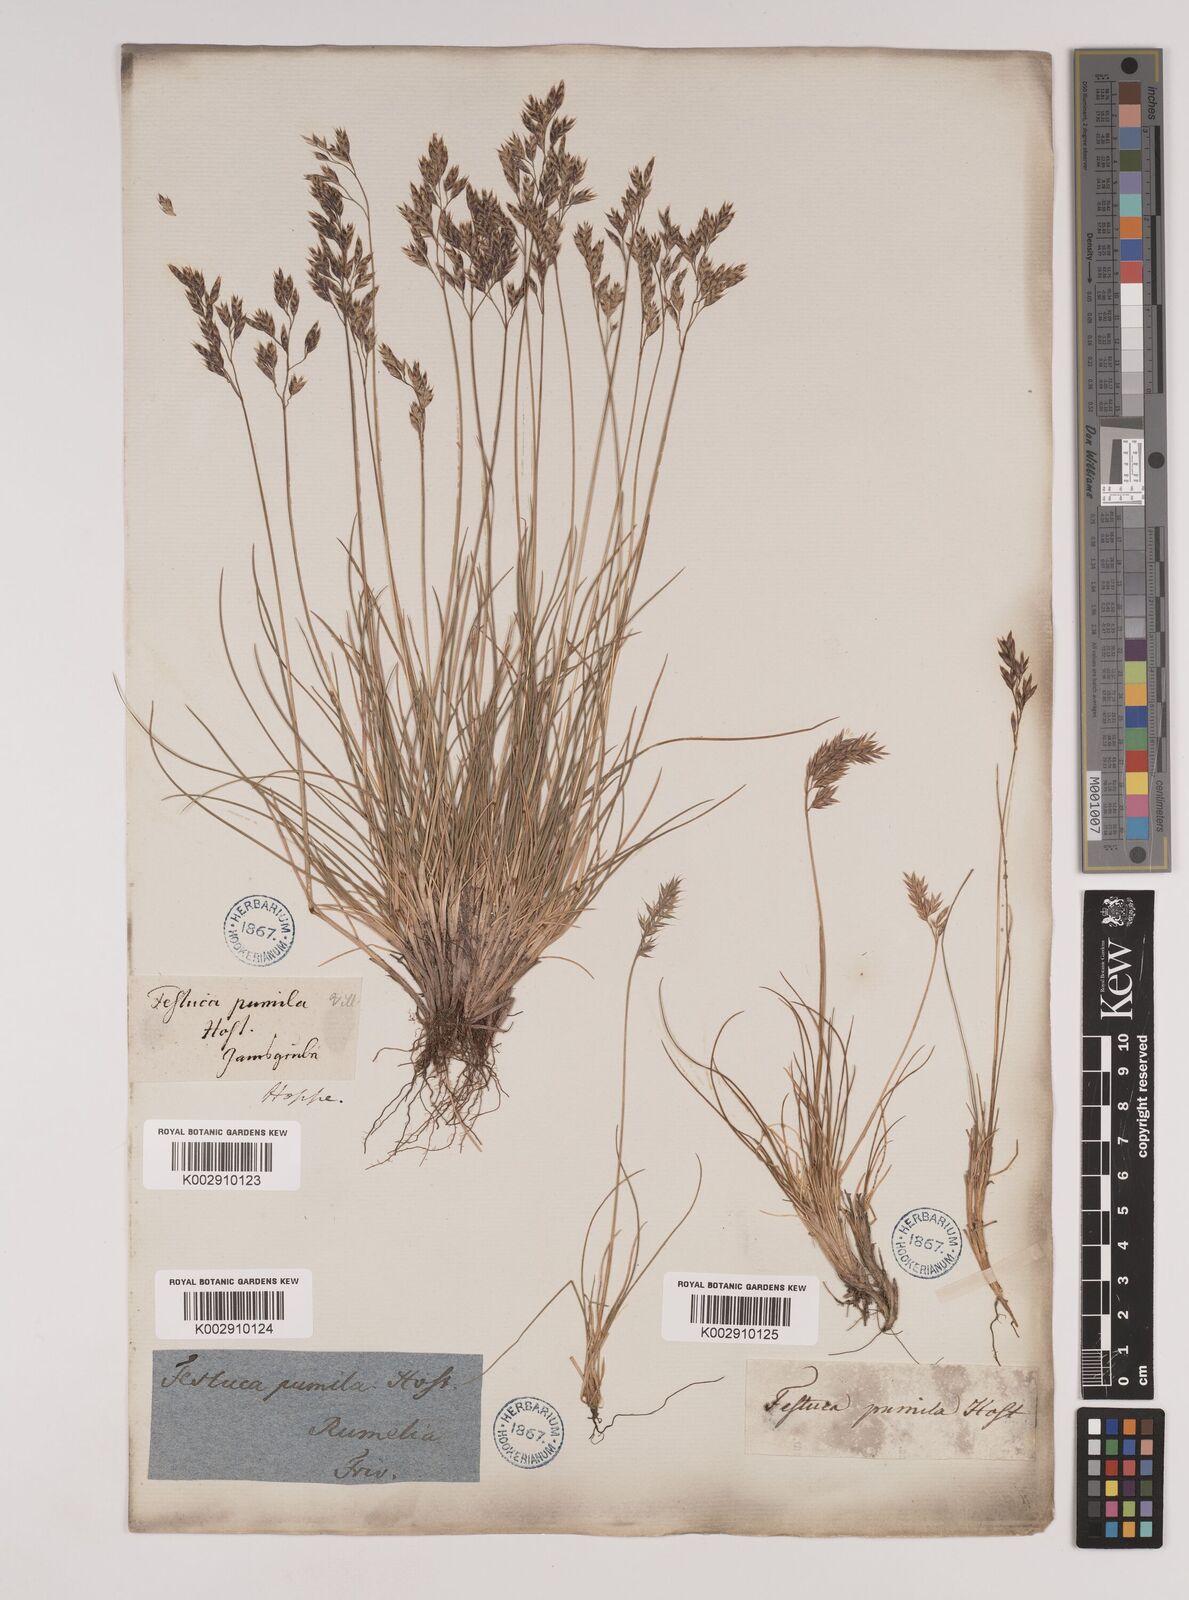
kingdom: Plantae
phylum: Tracheophyta
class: Liliopsida
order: Poales
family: Poaceae
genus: Festuca
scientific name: Festuca
